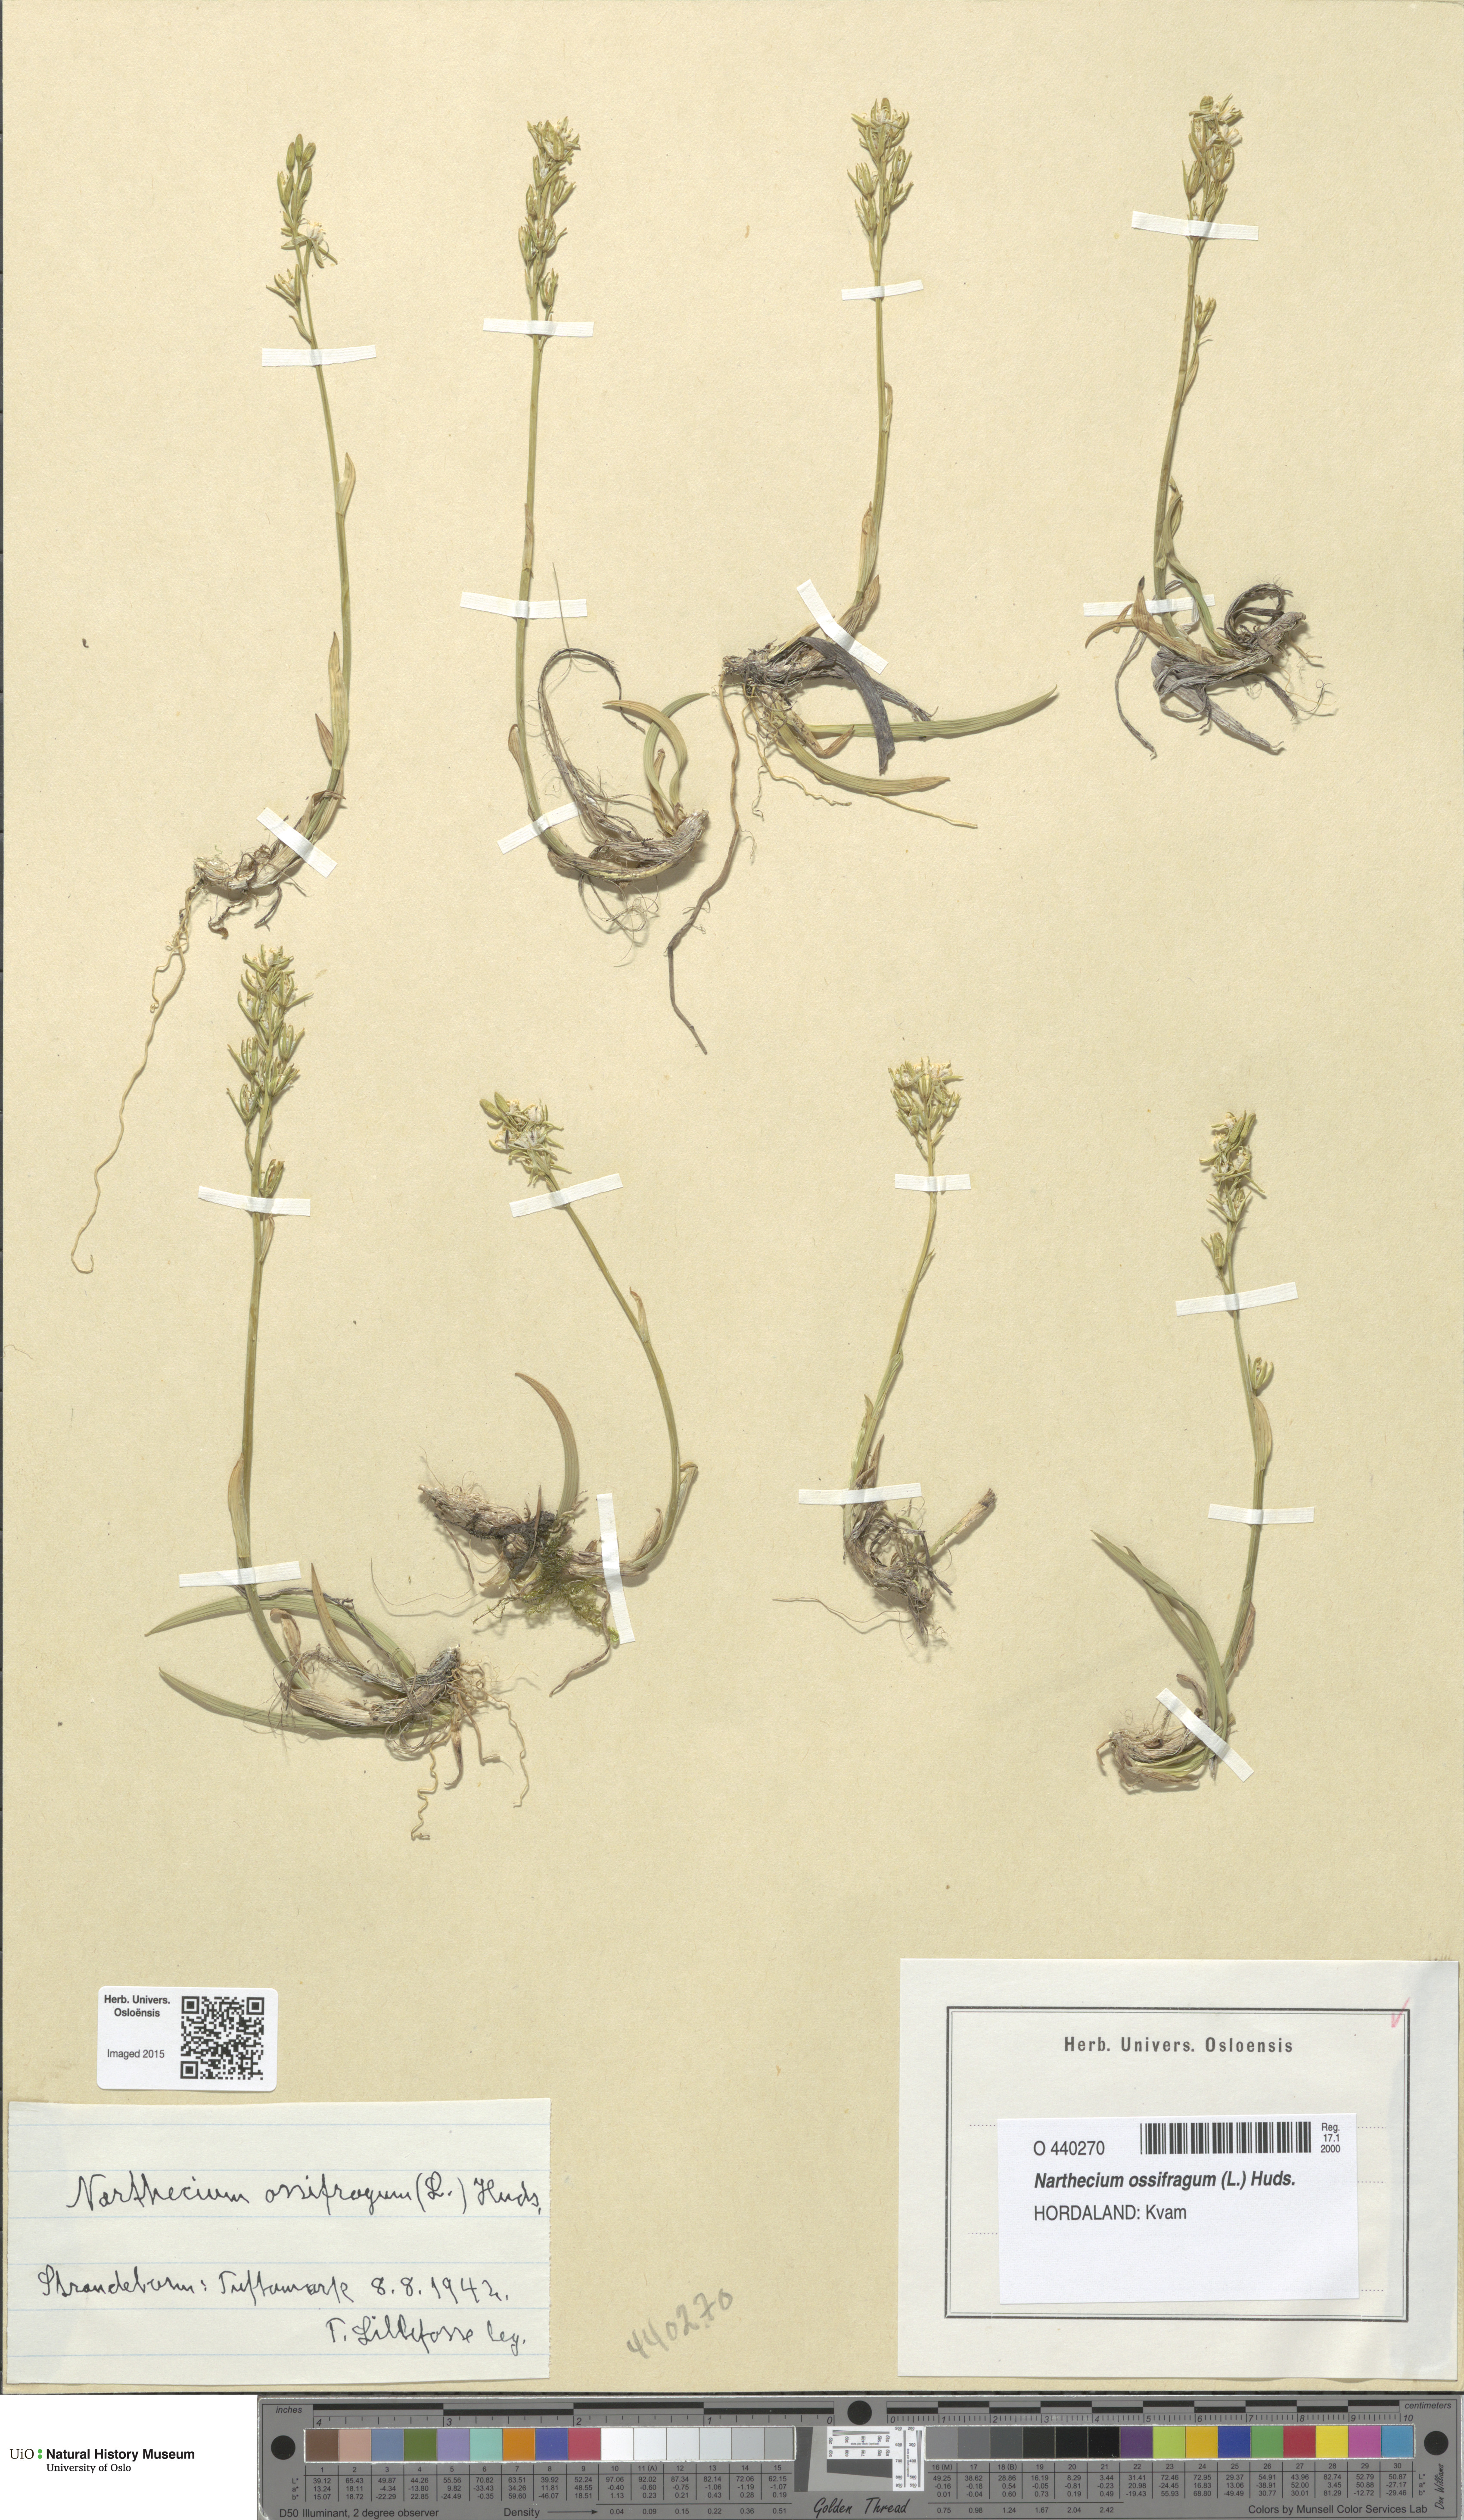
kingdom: Plantae
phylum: Tracheophyta
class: Liliopsida
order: Dioscoreales
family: Nartheciaceae
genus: Narthecium
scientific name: Narthecium ossifragum
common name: Bog asphodel
